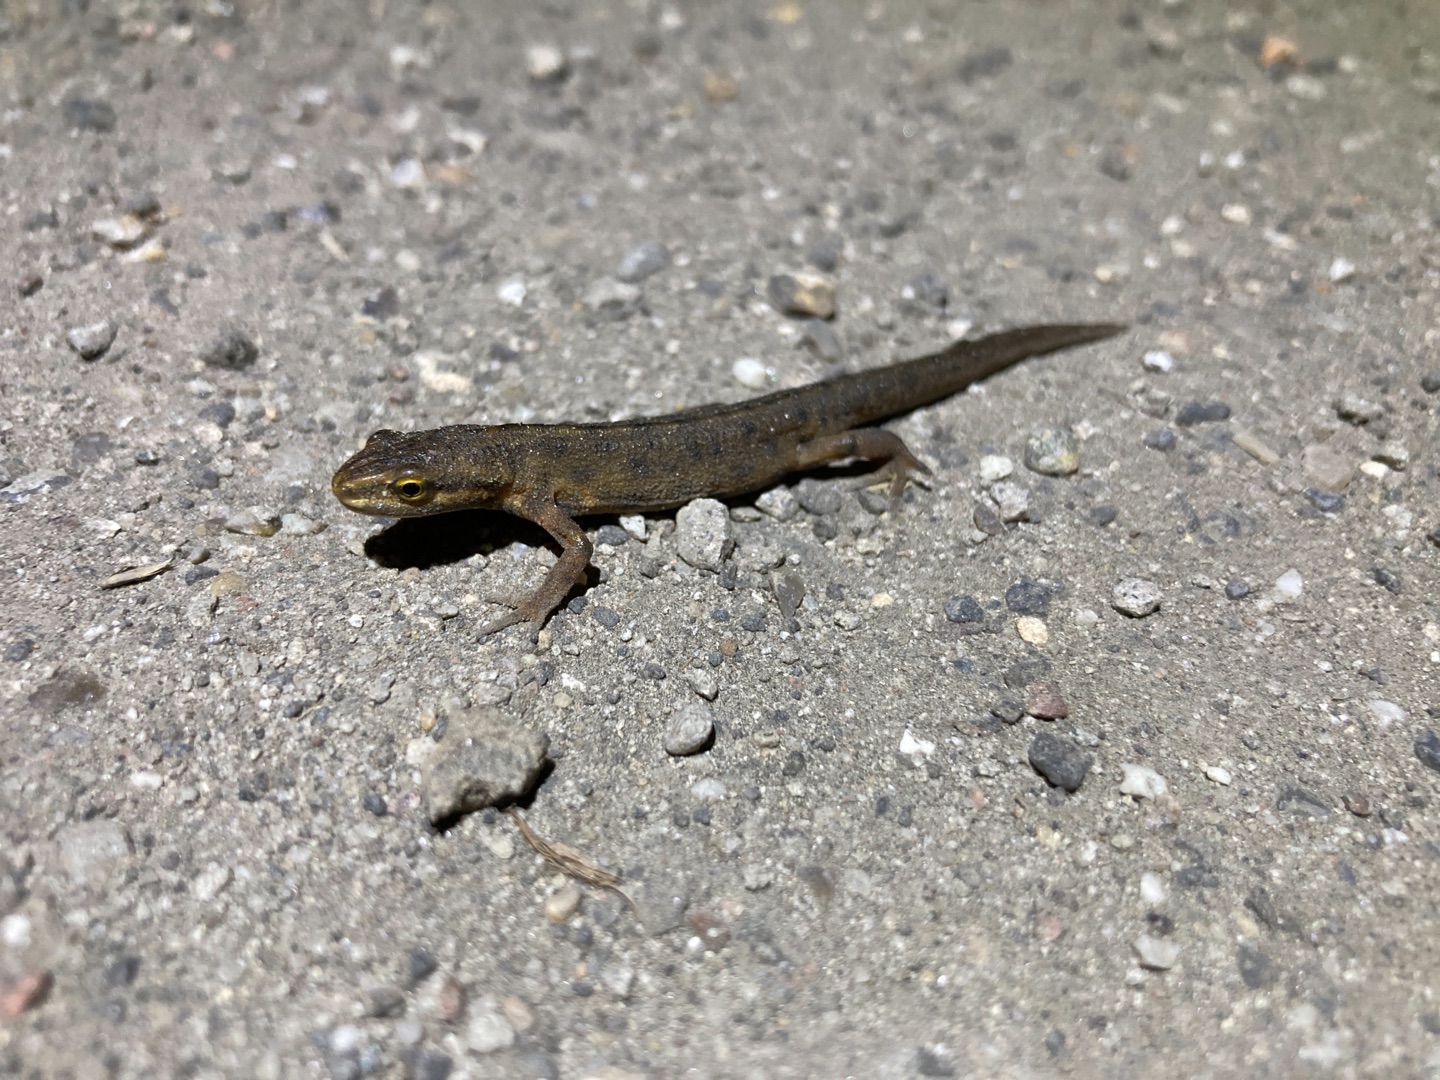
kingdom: Animalia
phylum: Chordata
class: Amphibia
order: Caudata
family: Salamandridae
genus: Lissotriton
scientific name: Lissotriton vulgaris
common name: Lille vandsalamander
